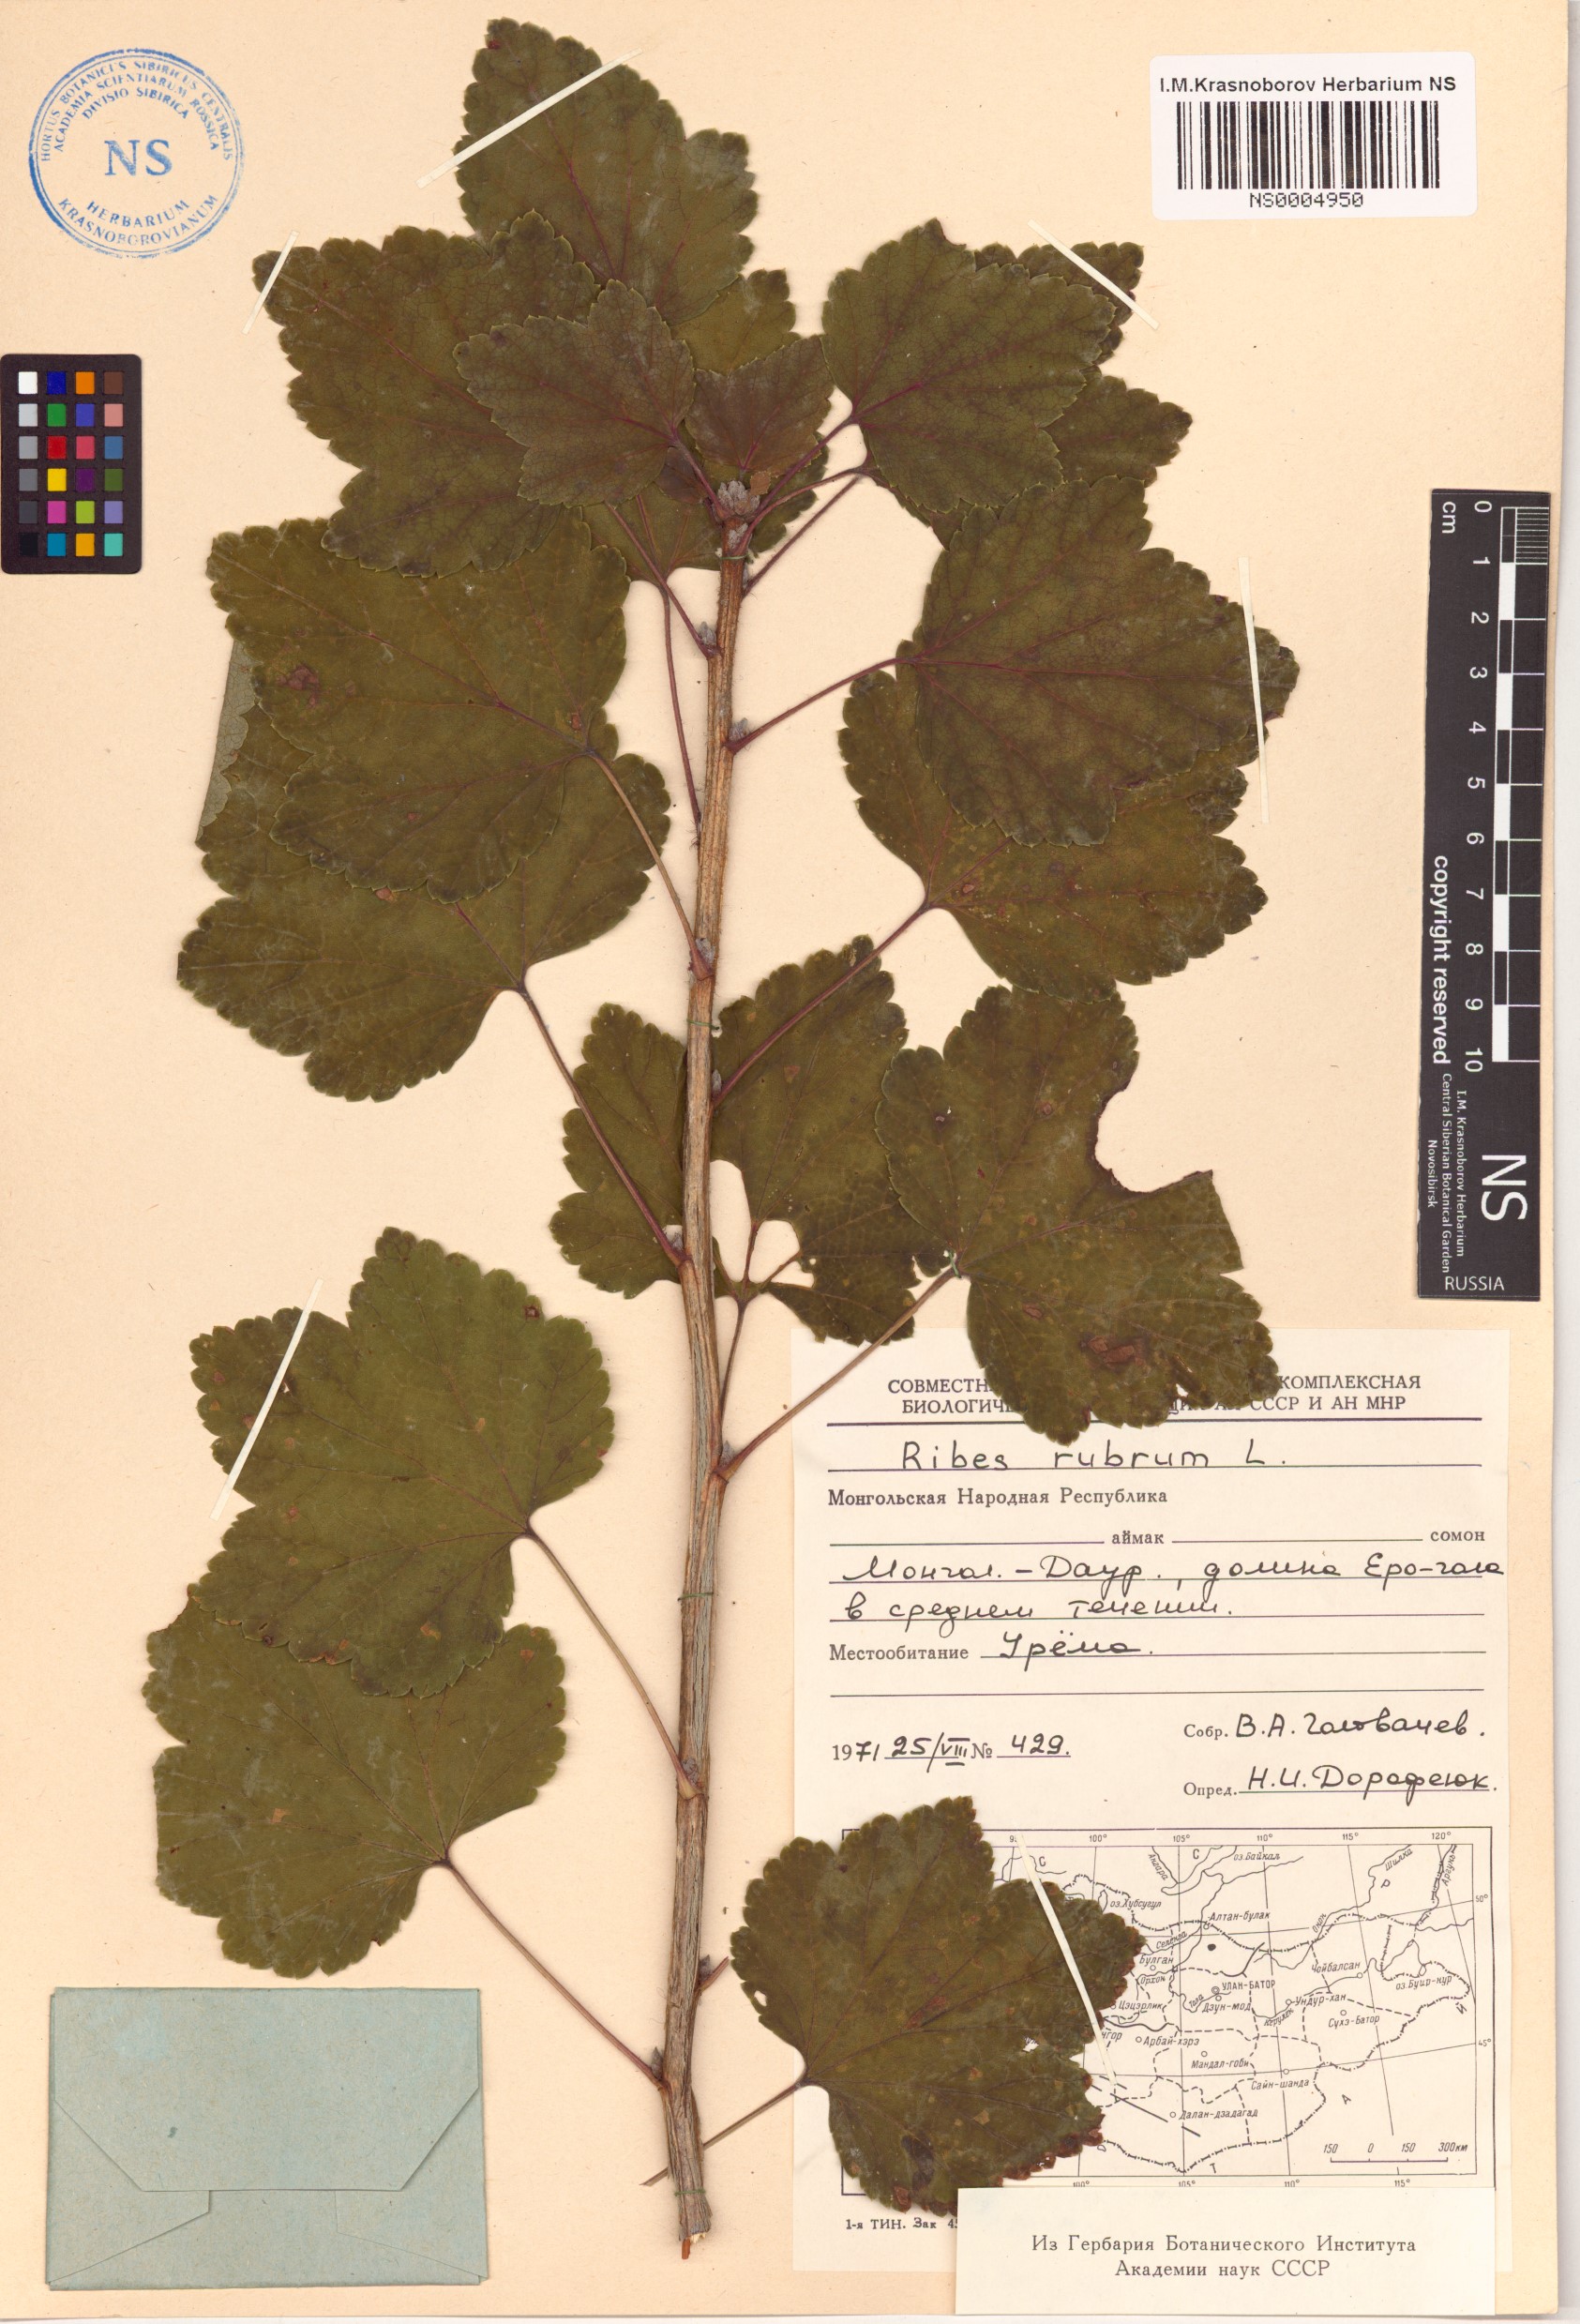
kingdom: Plantae
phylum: Tracheophyta
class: Magnoliopsida
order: Saxifragales
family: Grossulariaceae
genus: Ribes
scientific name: Ribes rubrum
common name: Red currant
